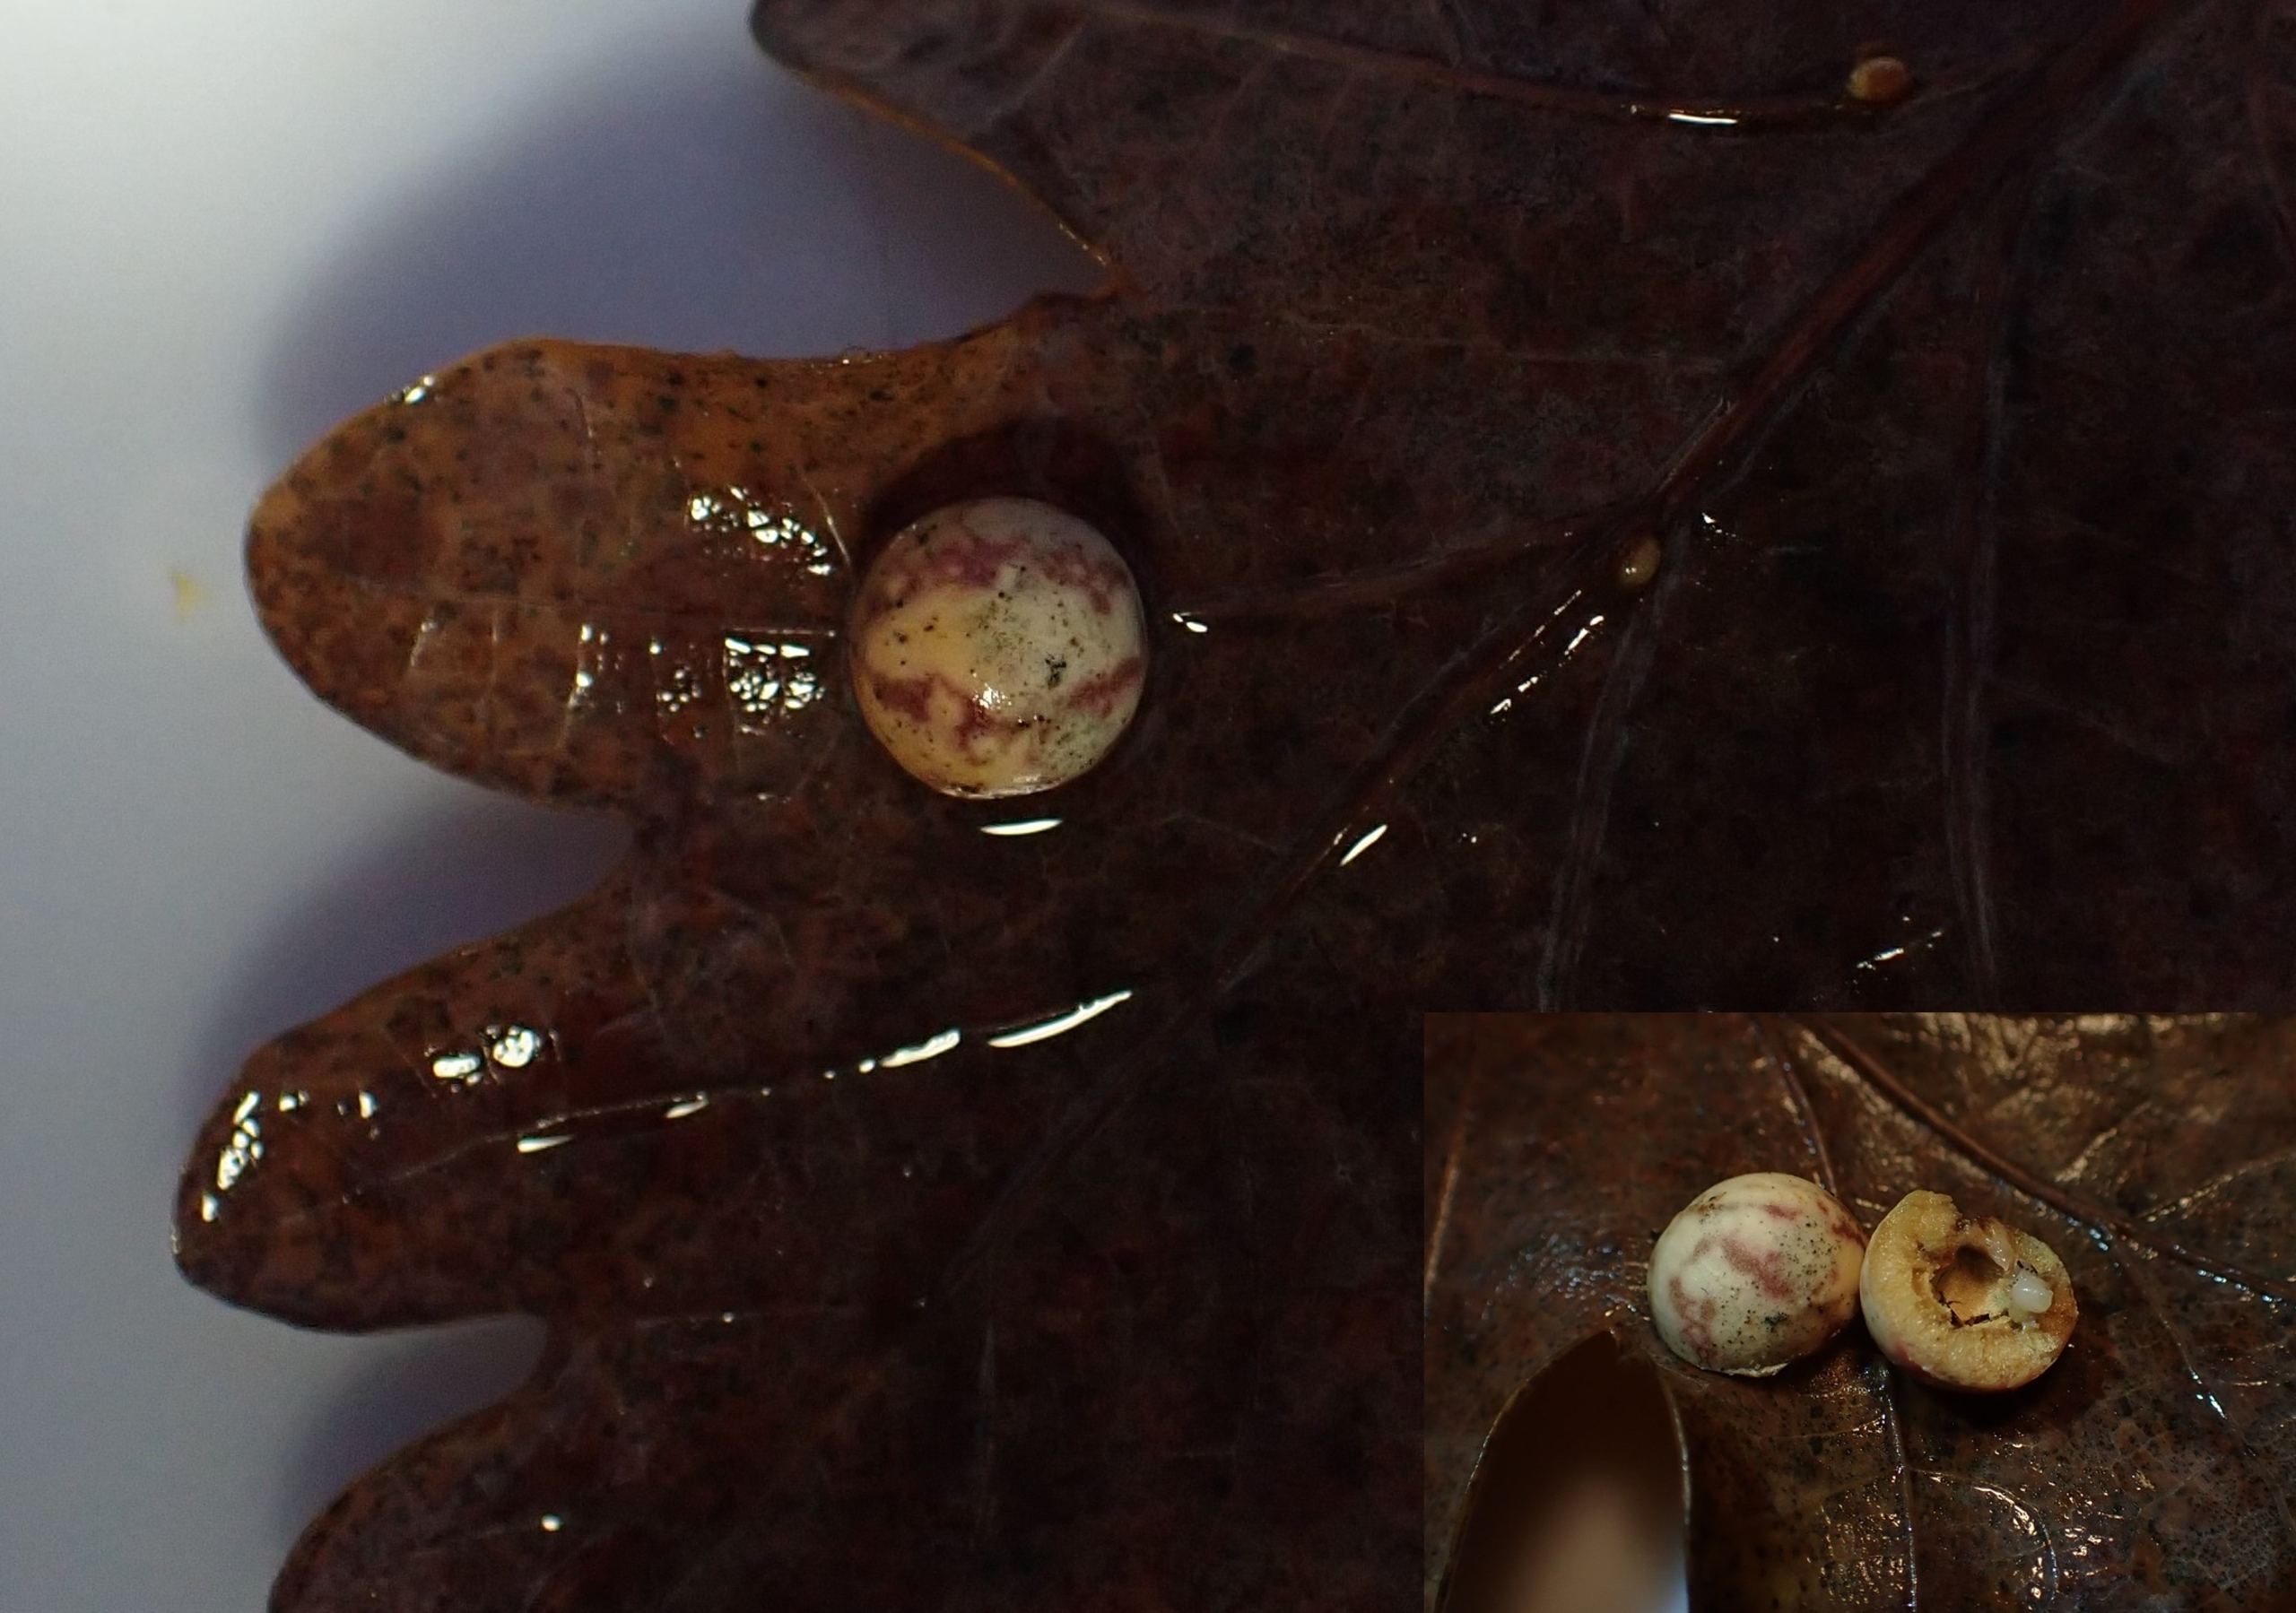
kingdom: Animalia
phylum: Arthropoda
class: Insecta
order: Hymenoptera
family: Cynipidae
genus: Cynips
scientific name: Cynips longiventris
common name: Dannebrogsgalhveps
